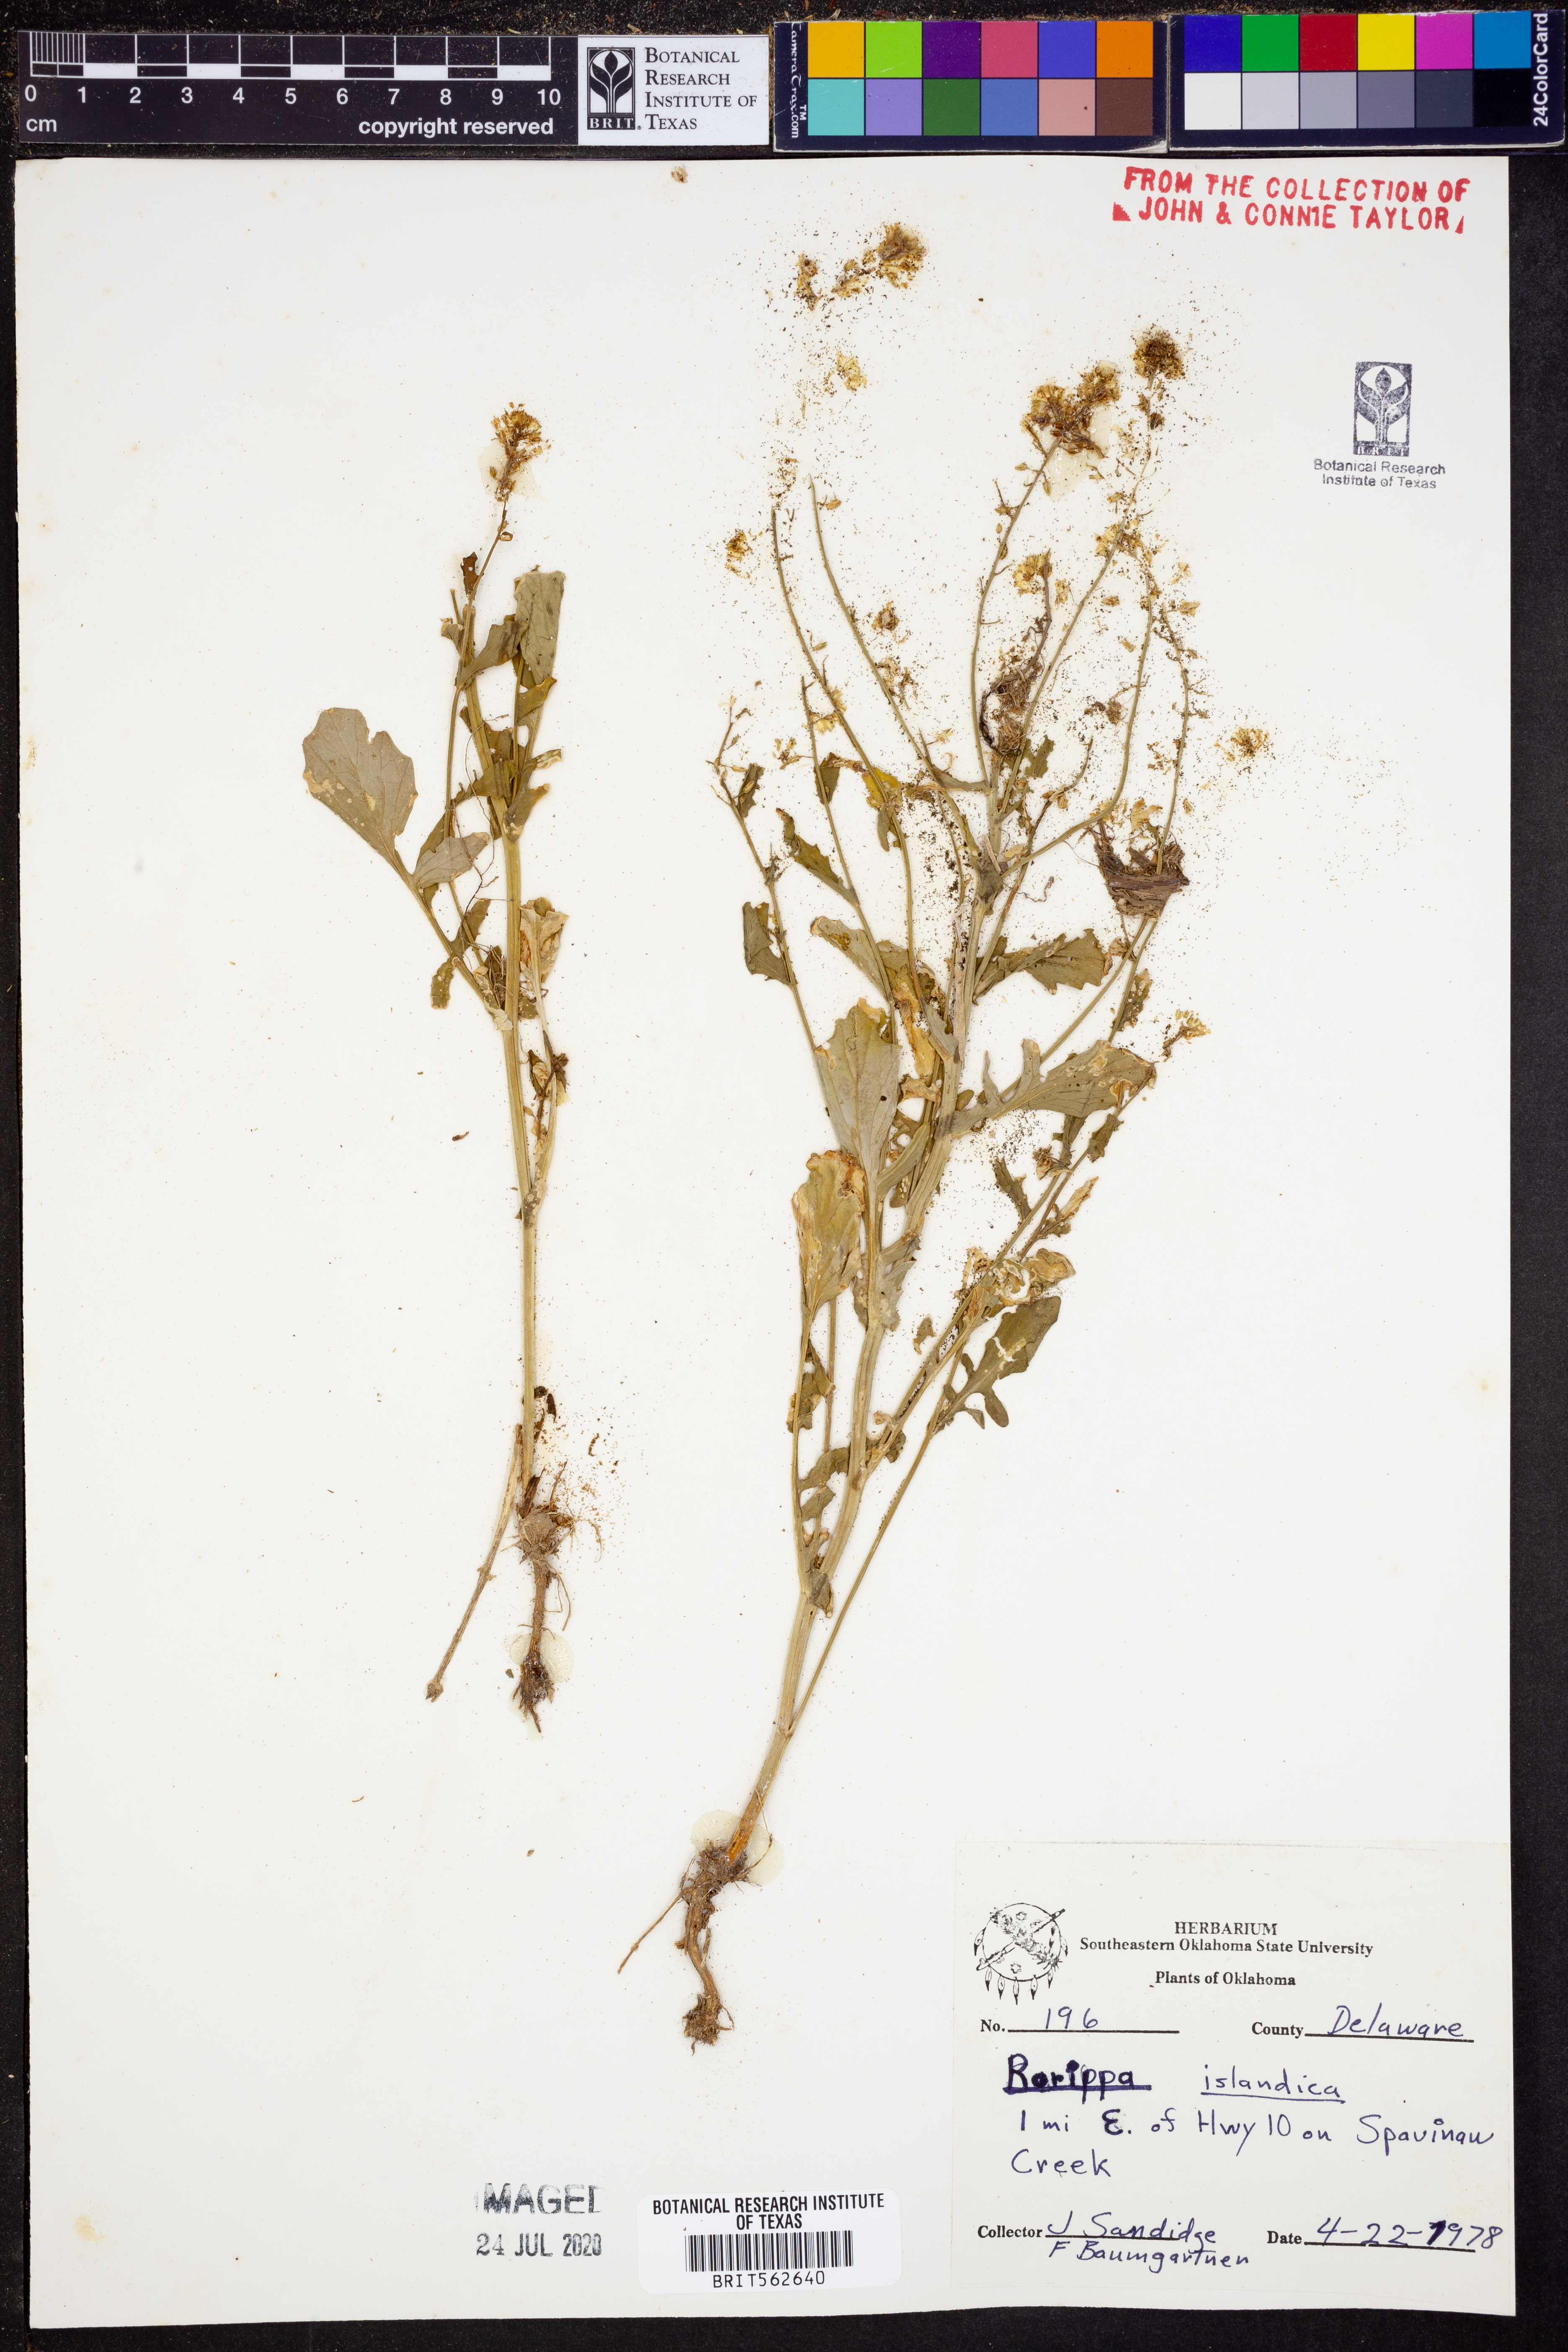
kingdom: Plantae
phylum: Tracheophyta
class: Magnoliopsida
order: Brassicales
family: Brassicaceae
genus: Rorippa
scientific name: Rorippa islandica
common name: Marsh cress
